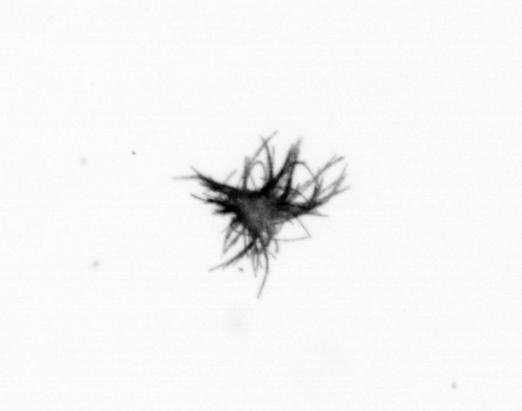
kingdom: Bacteria
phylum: Cyanobacteria
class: Cyanobacteriia
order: Cyanobacteriales
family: Microcoleaceae
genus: Trichodesmium
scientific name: Trichodesmium
